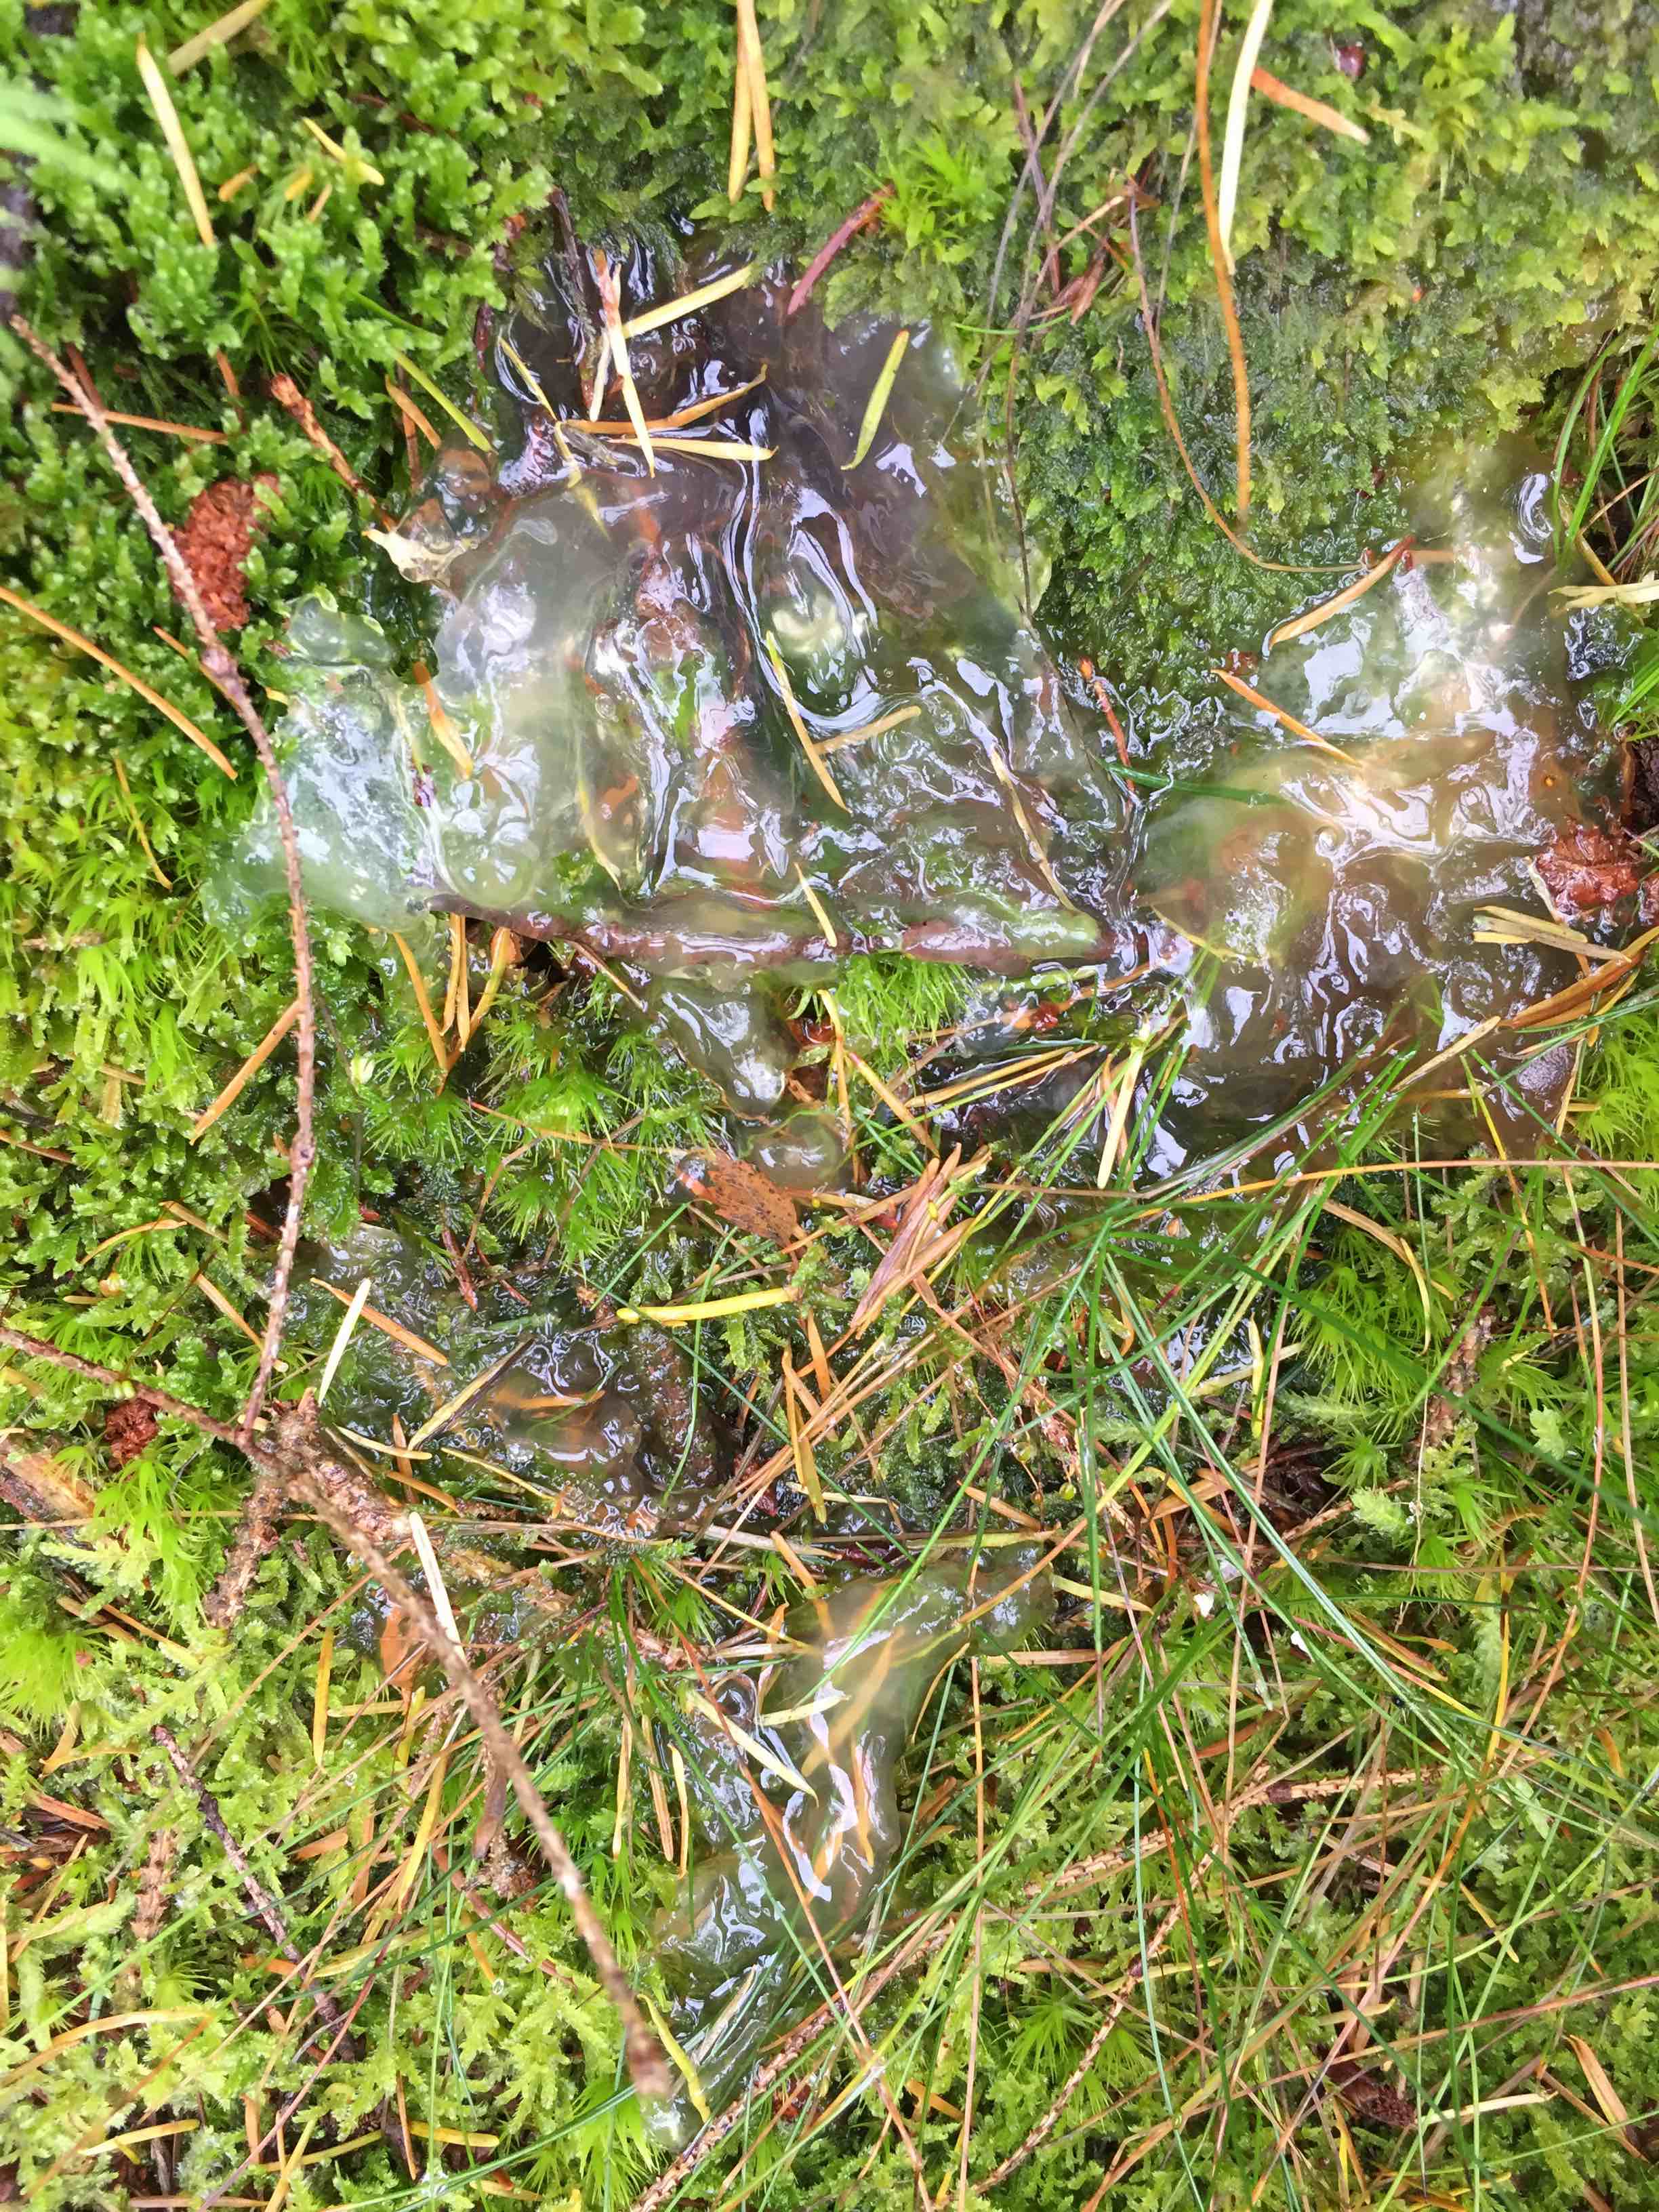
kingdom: Fungi
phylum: Basidiomycota
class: Agaricomycetes
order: Auriculariales
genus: Pseudohydnum
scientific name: Pseudohydnum gelatinosum
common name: bævretand
